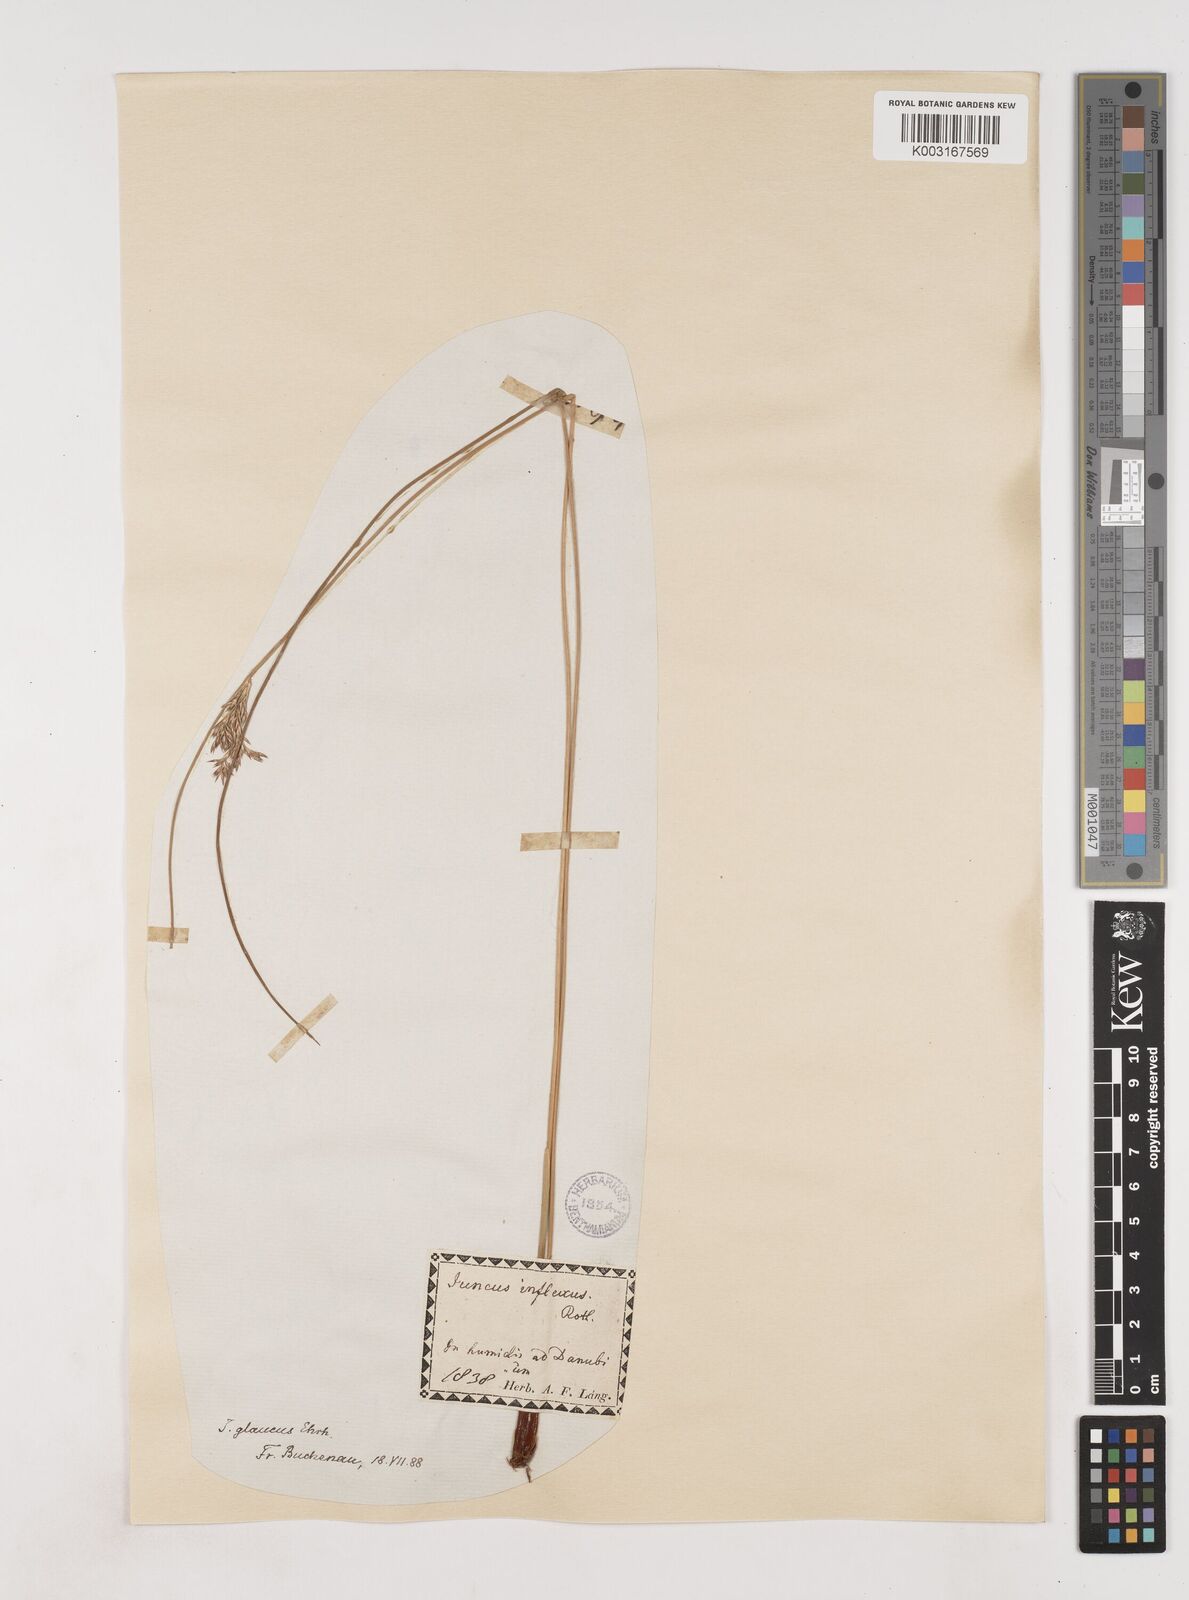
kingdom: Plantae
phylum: Tracheophyta
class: Liliopsida
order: Poales
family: Juncaceae
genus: Juncus
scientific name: Juncus inflexus
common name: Hard rush
